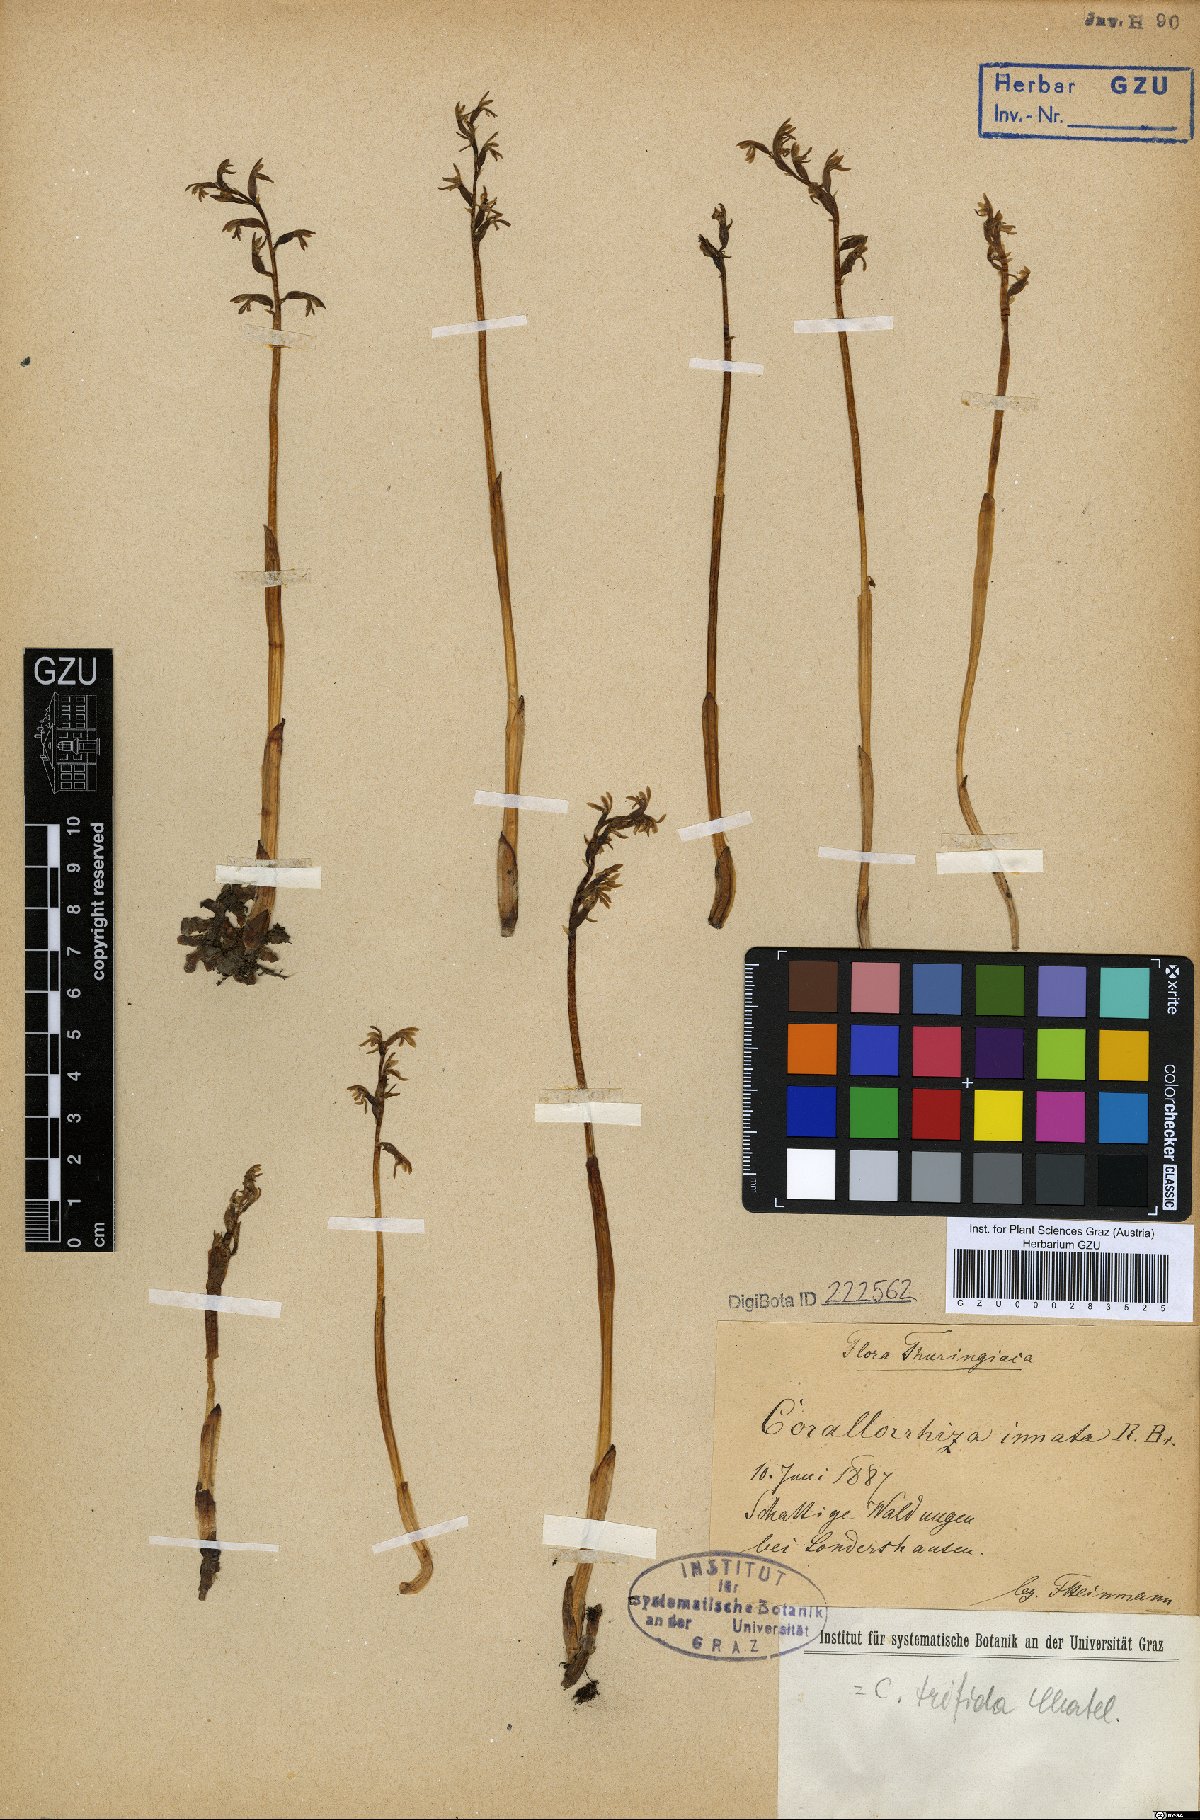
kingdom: Plantae
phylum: Tracheophyta
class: Liliopsida
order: Asparagales
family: Orchidaceae
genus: Corallorhiza
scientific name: Corallorhiza trifida
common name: Yellow coralroot
